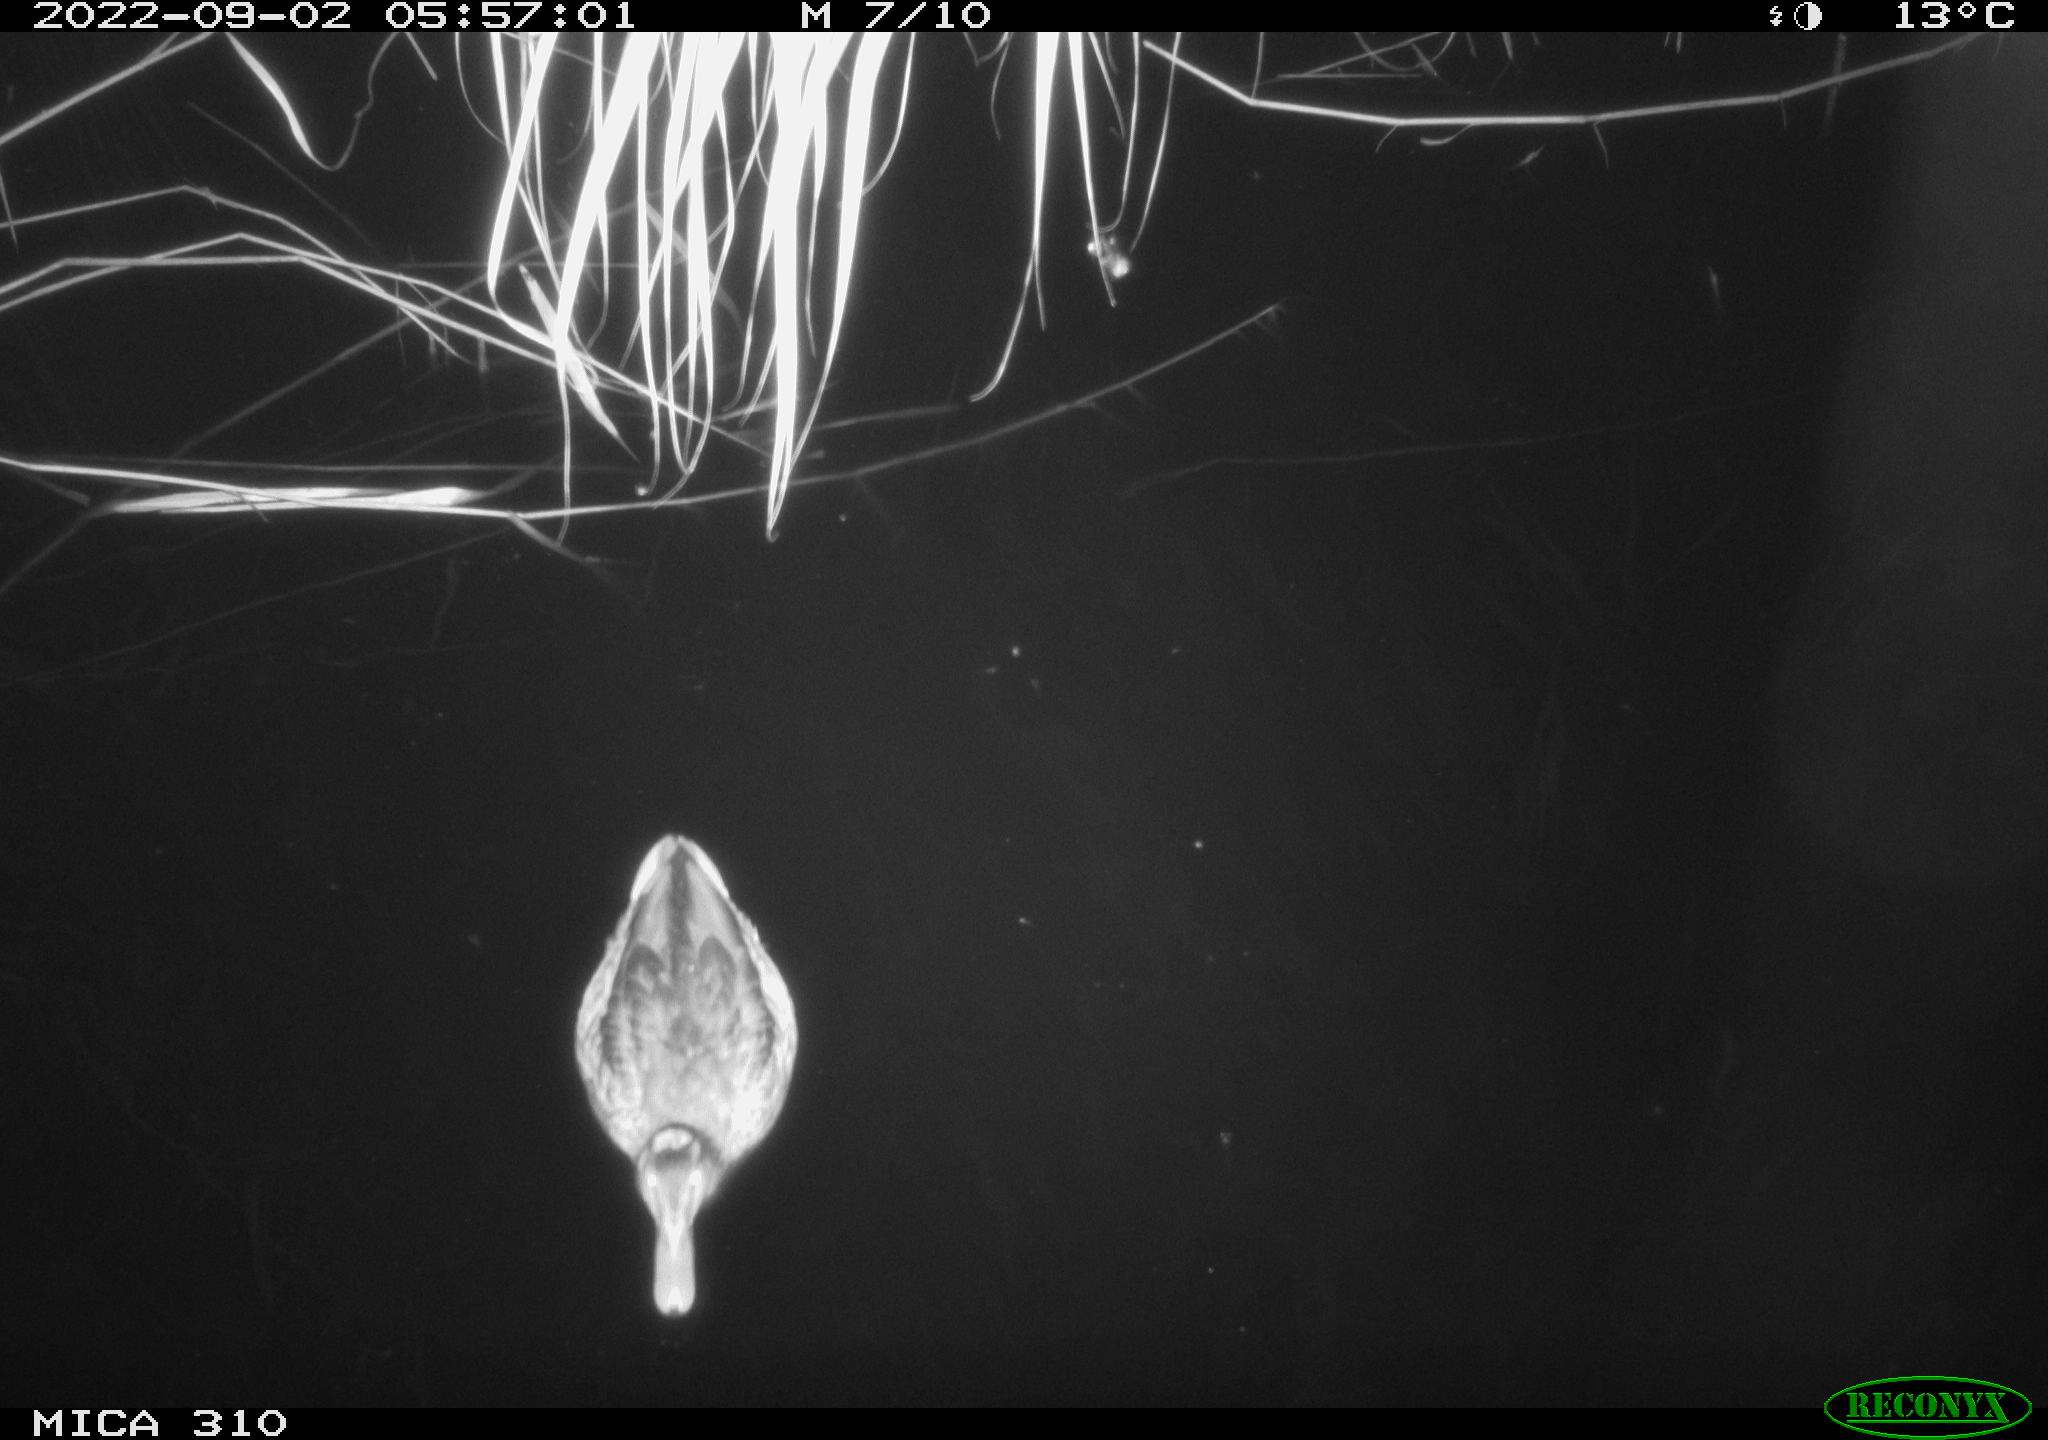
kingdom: Animalia
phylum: Chordata
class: Aves
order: Anseriformes
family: Anatidae
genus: Anas
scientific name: Anas platyrhynchos
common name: Mallard
